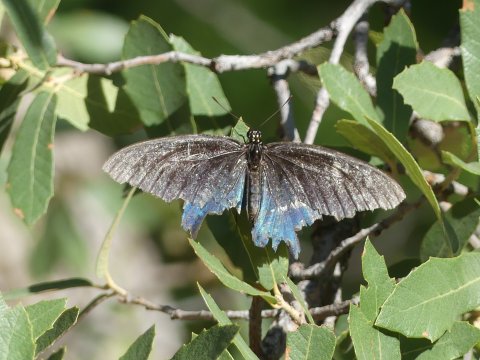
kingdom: Animalia
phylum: Arthropoda
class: Insecta
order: Lepidoptera
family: Papilionidae
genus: Battus
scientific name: Battus philenor
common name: Pipevine Swallowtail
